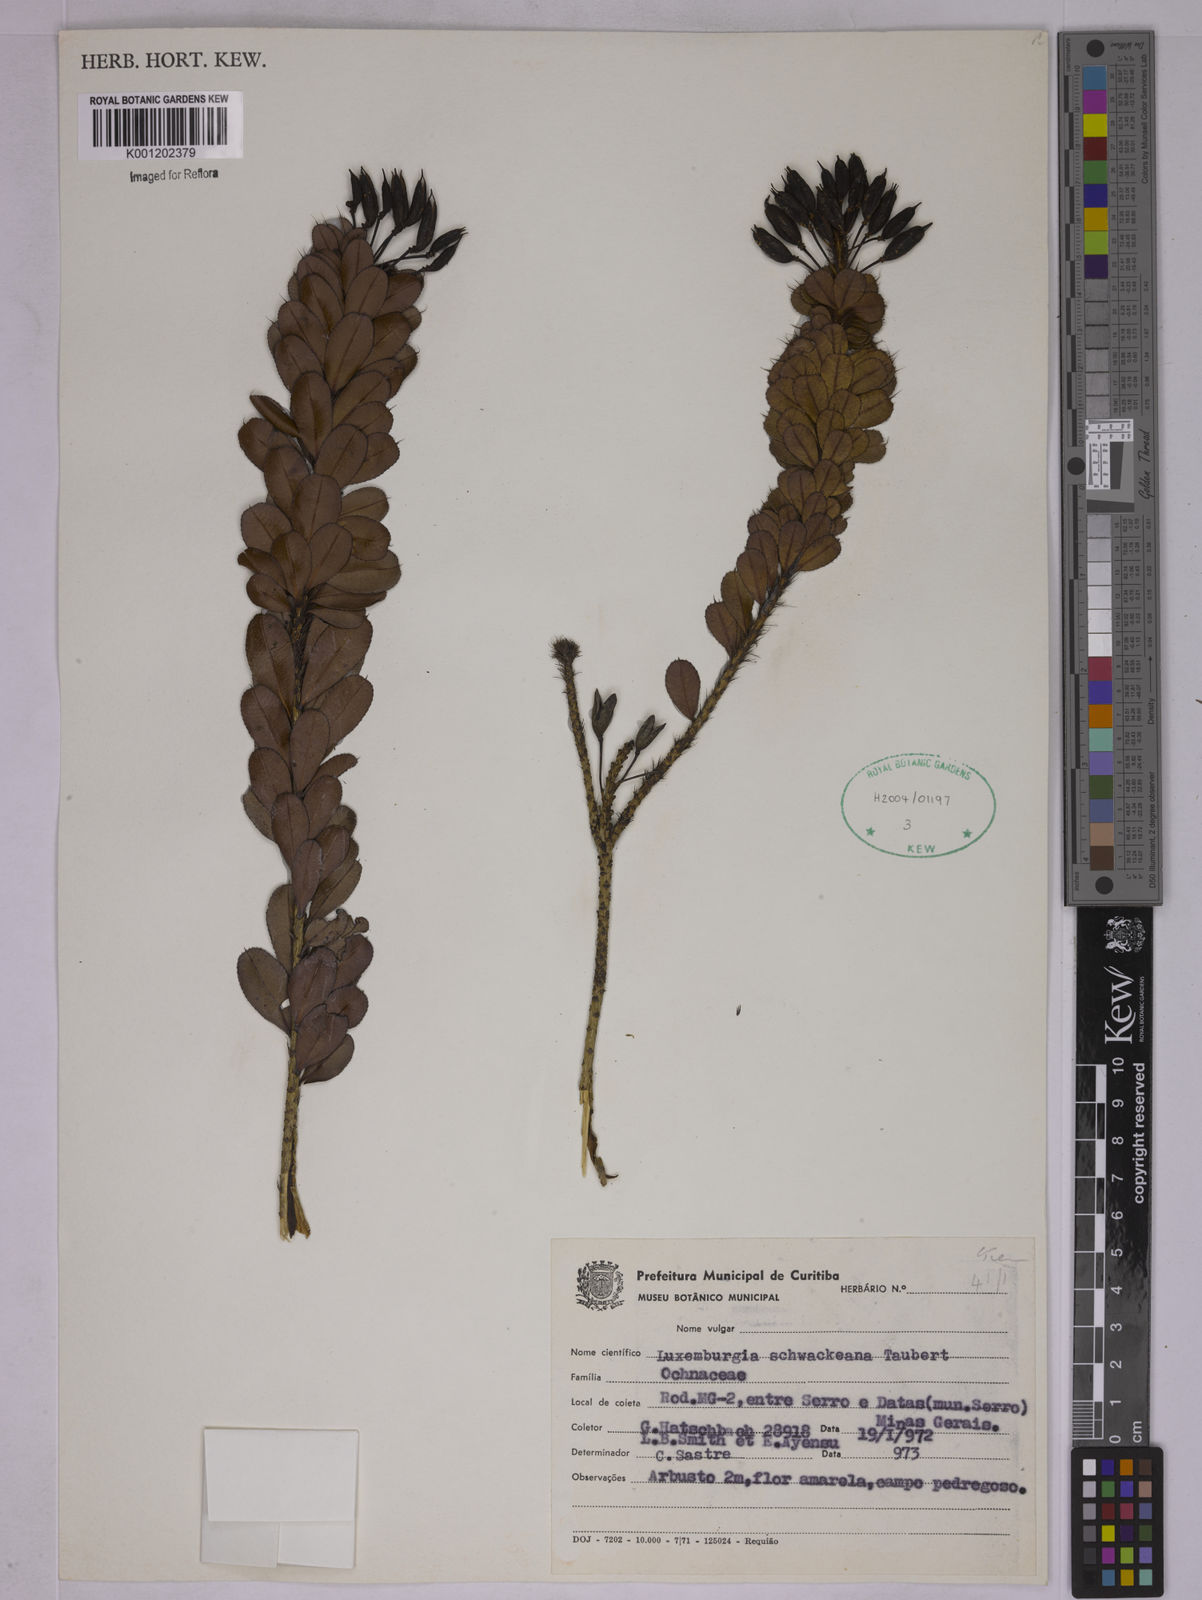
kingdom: Plantae
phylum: Tracheophyta
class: Magnoliopsida
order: Malpighiales
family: Ochnaceae
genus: Luxemburgia
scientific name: Luxemburgia schwackeana
